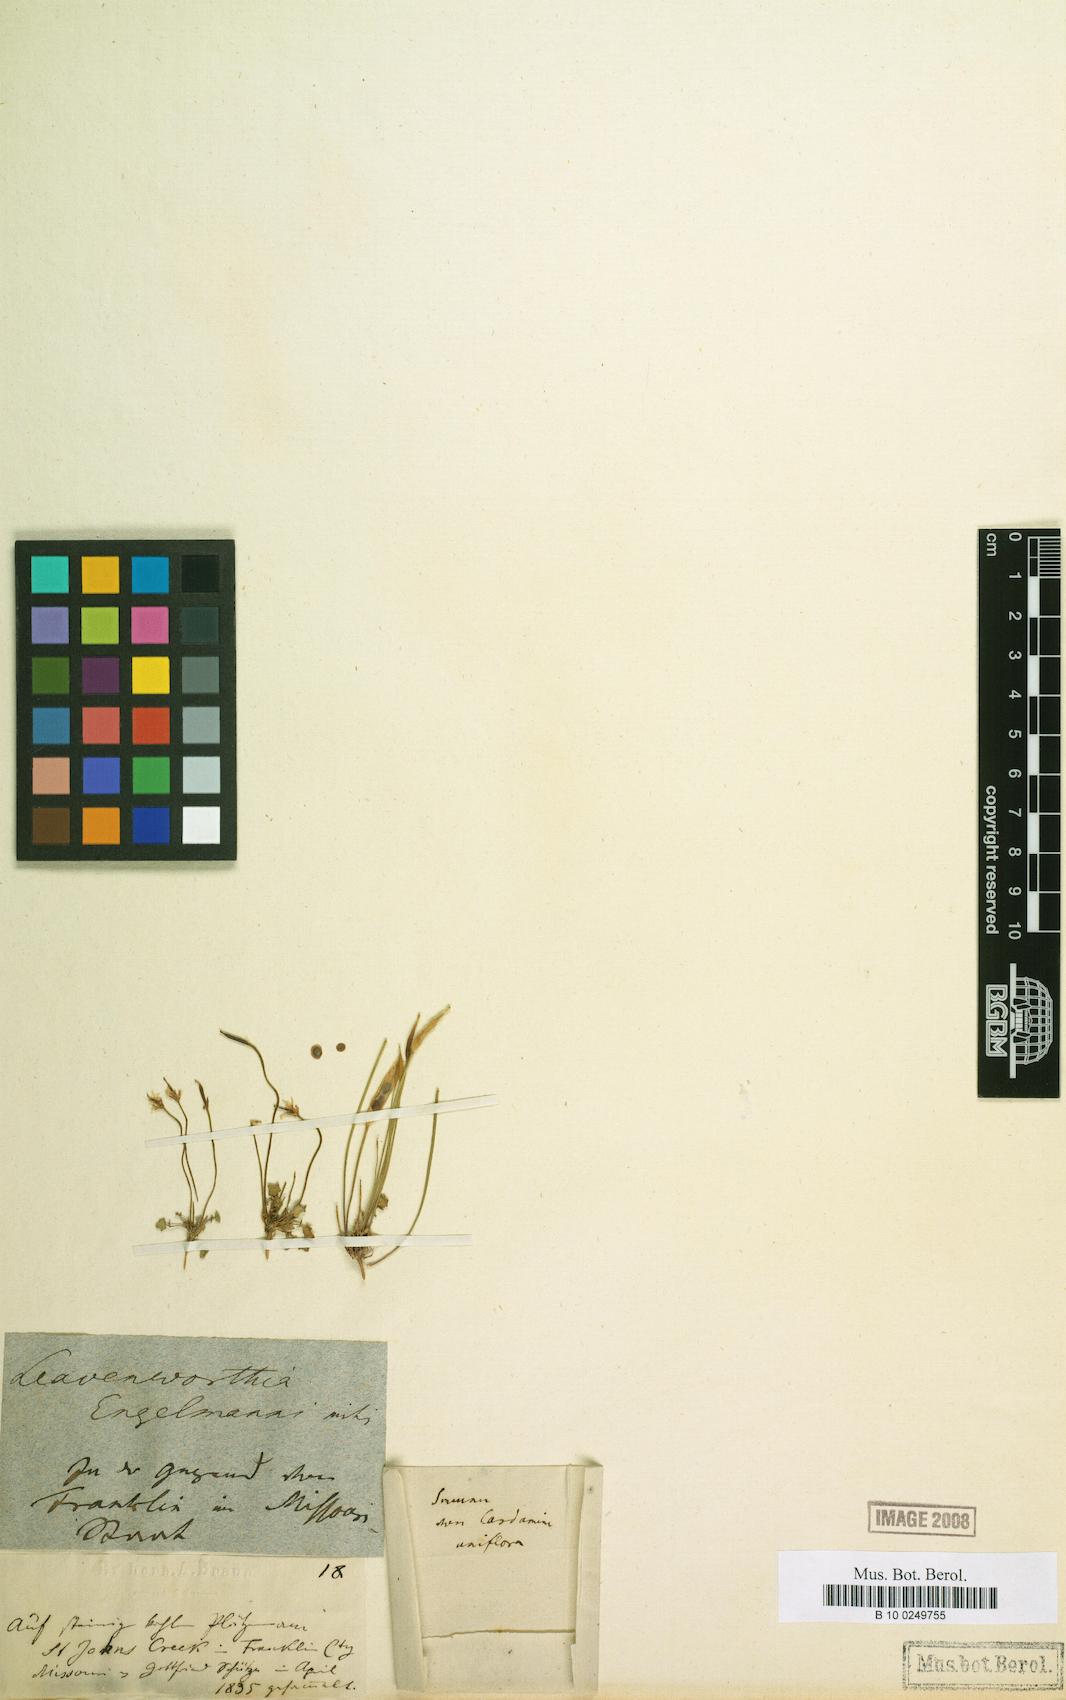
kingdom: Plantae
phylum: Tracheophyta
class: Magnoliopsida
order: Brassicales
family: Brassicaceae
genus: Leavenworthia
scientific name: Leavenworthia
